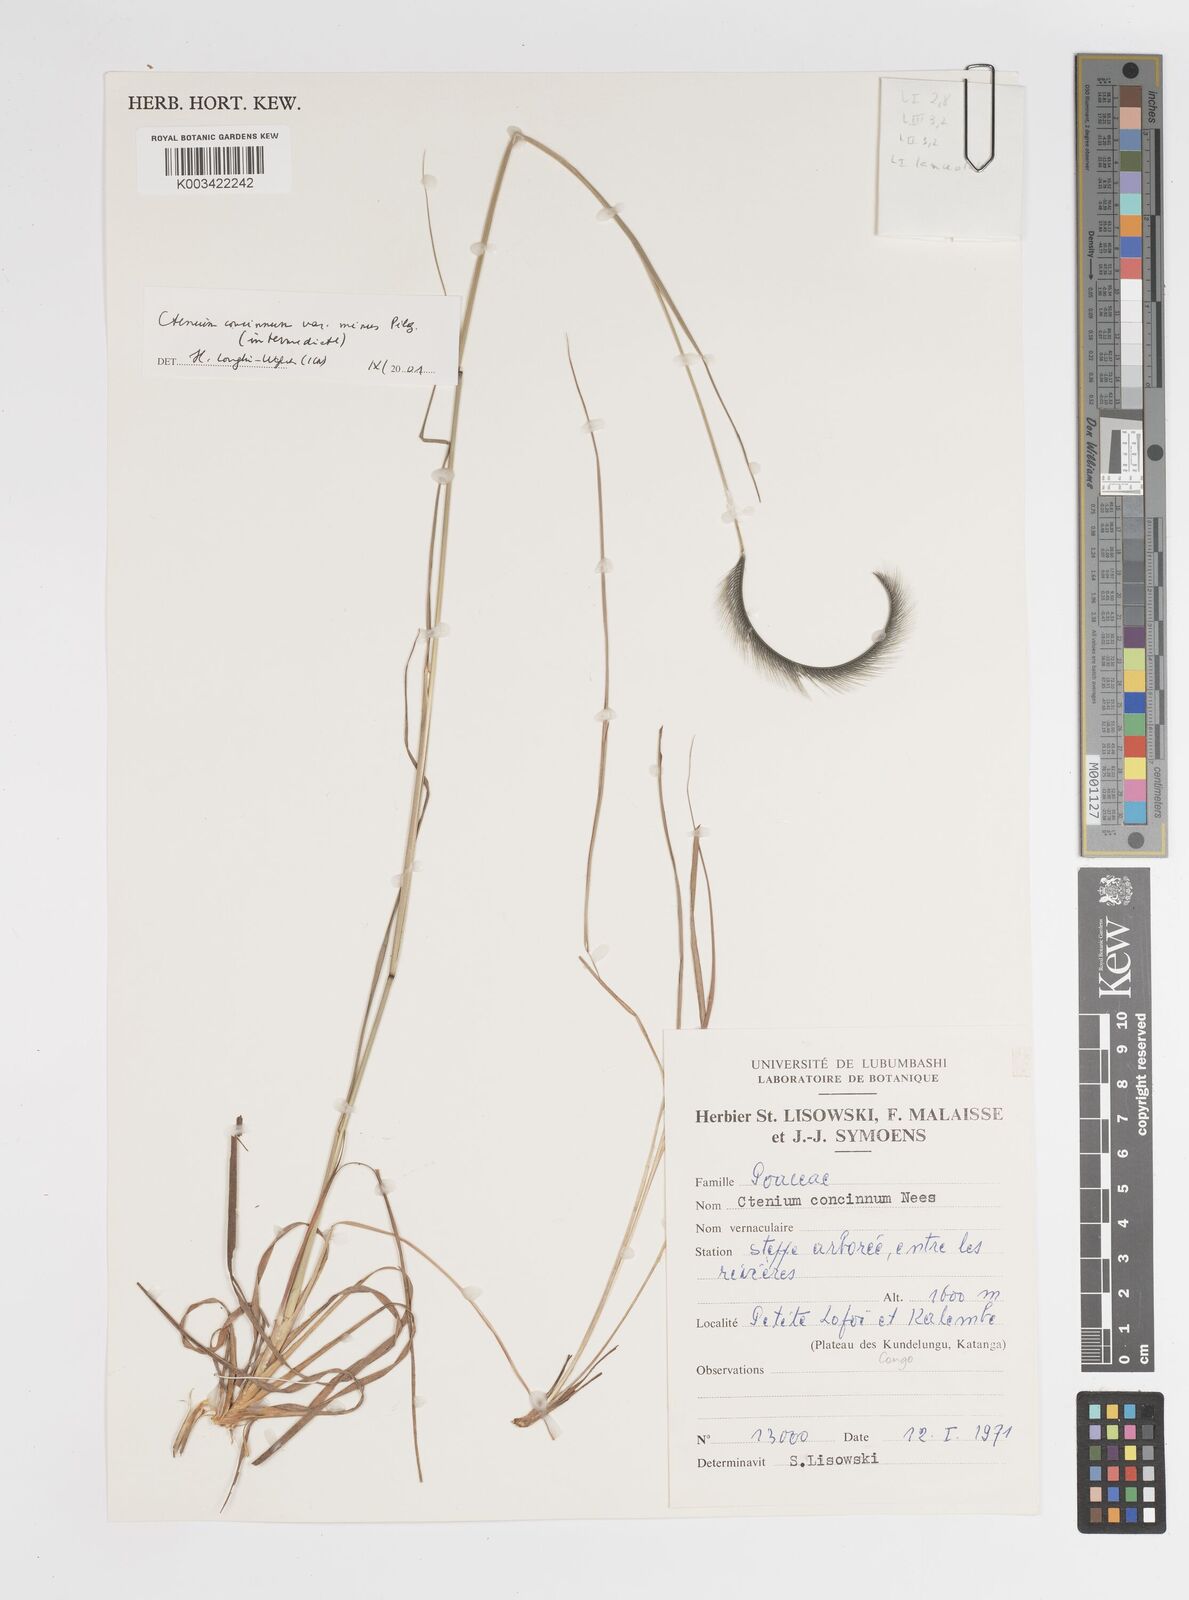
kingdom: Plantae
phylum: Tracheophyta
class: Liliopsida
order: Poales
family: Poaceae
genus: Ctenium
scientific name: Ctenium concinnum
